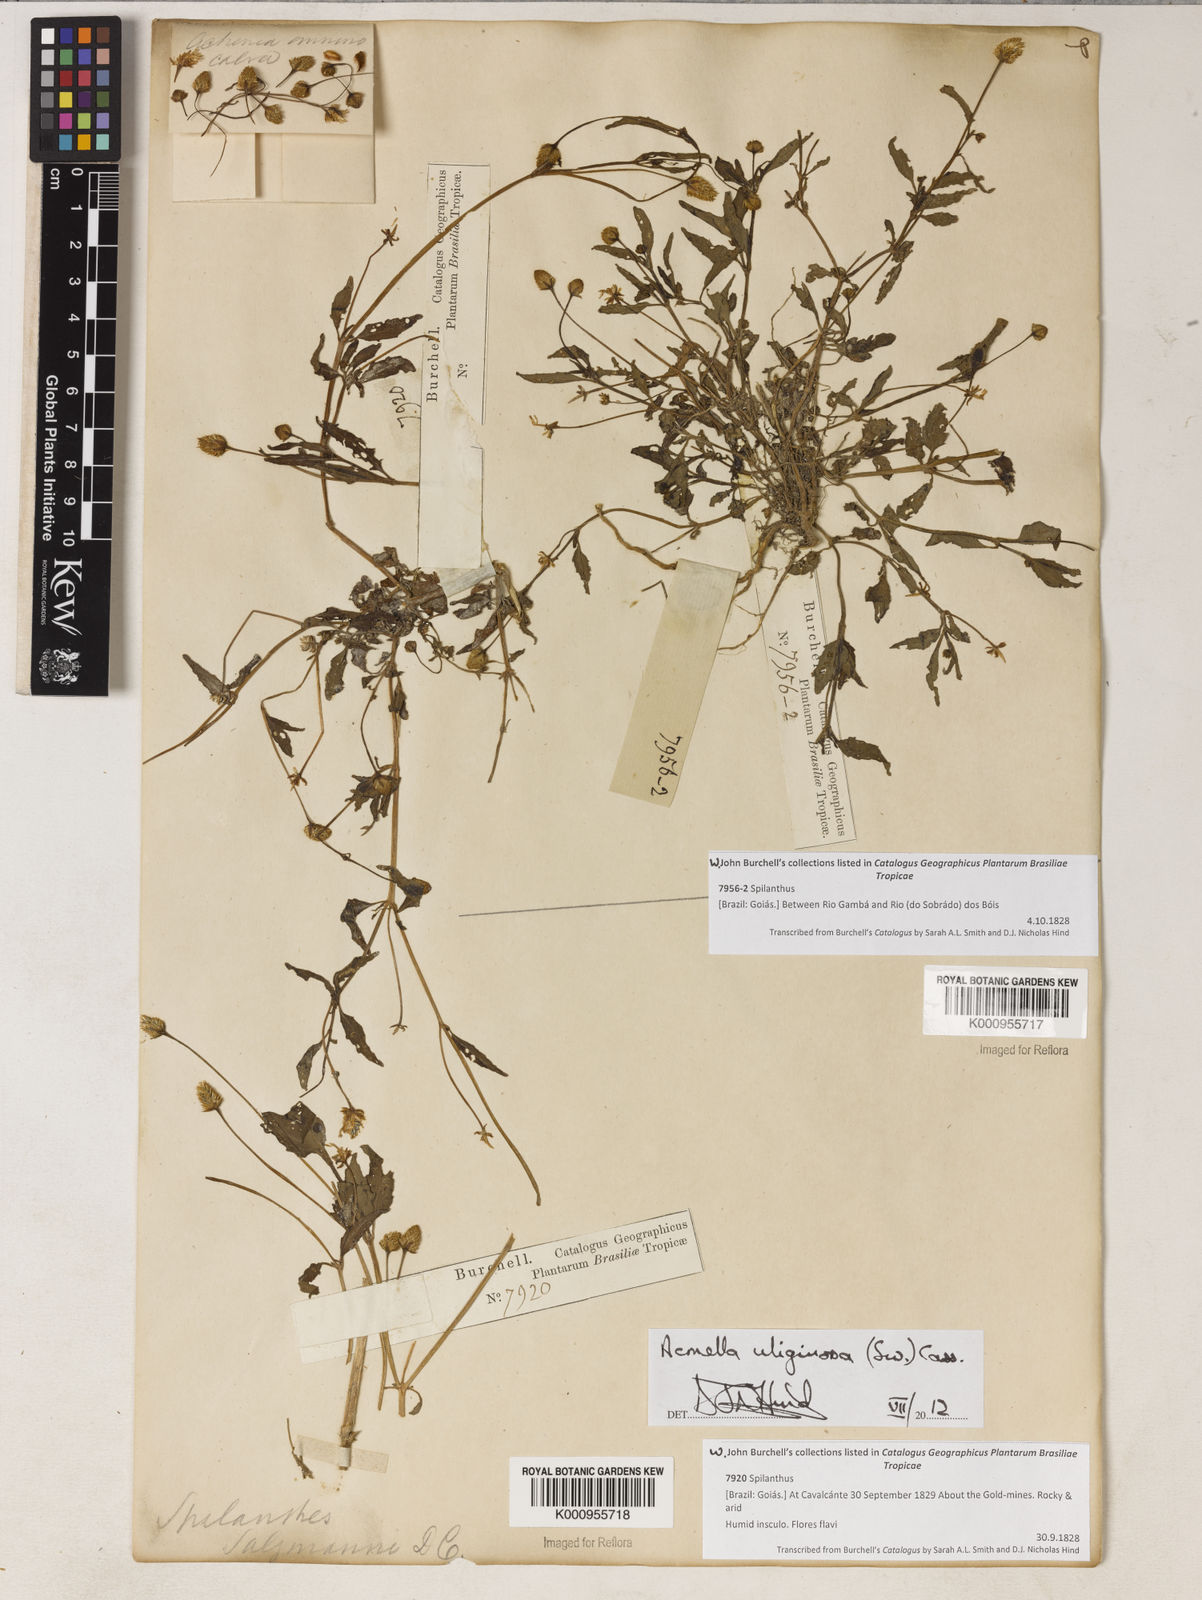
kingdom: Plantae
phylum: Tracheophyta
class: Magnoliopsida
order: Asterales
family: Asteraceae
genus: Acmella
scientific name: Acmella uliginosa
